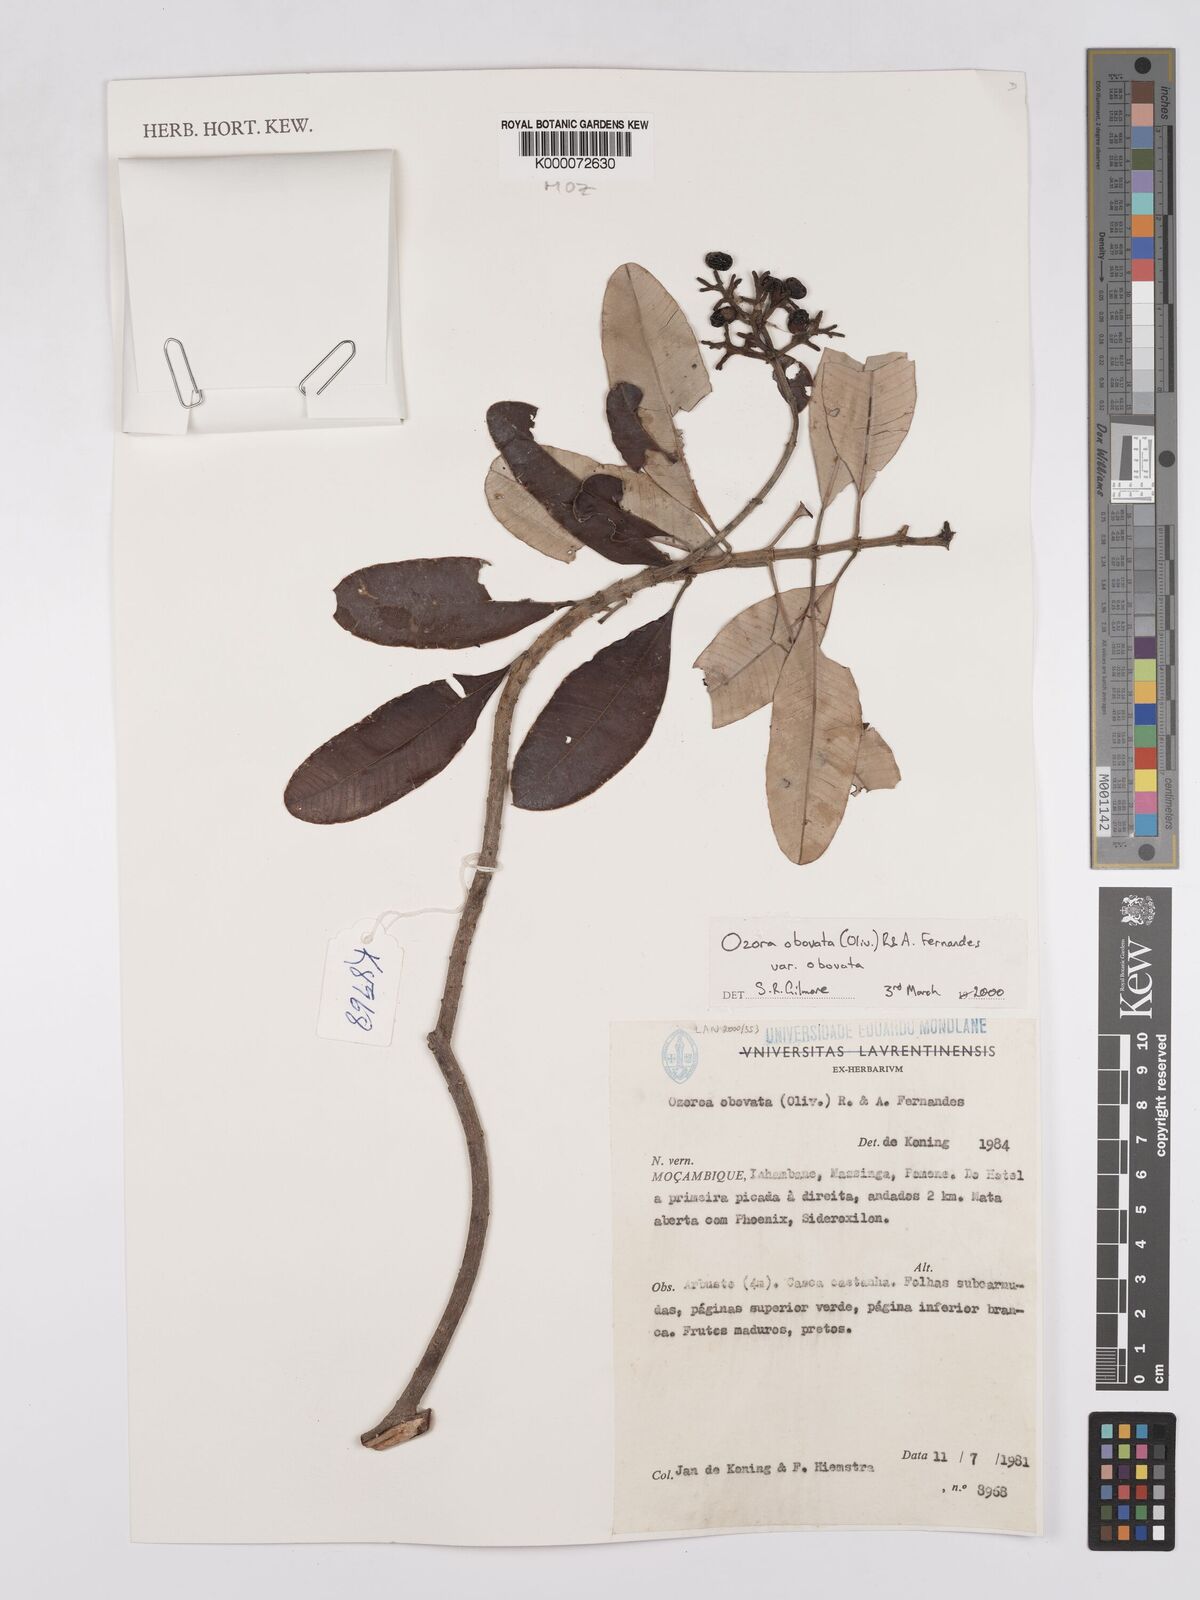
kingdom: Plantae
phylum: Tracheophyta
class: Magnoliopsida
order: Sapindales
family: Anacardiaceae
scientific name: Anacardiaceae
